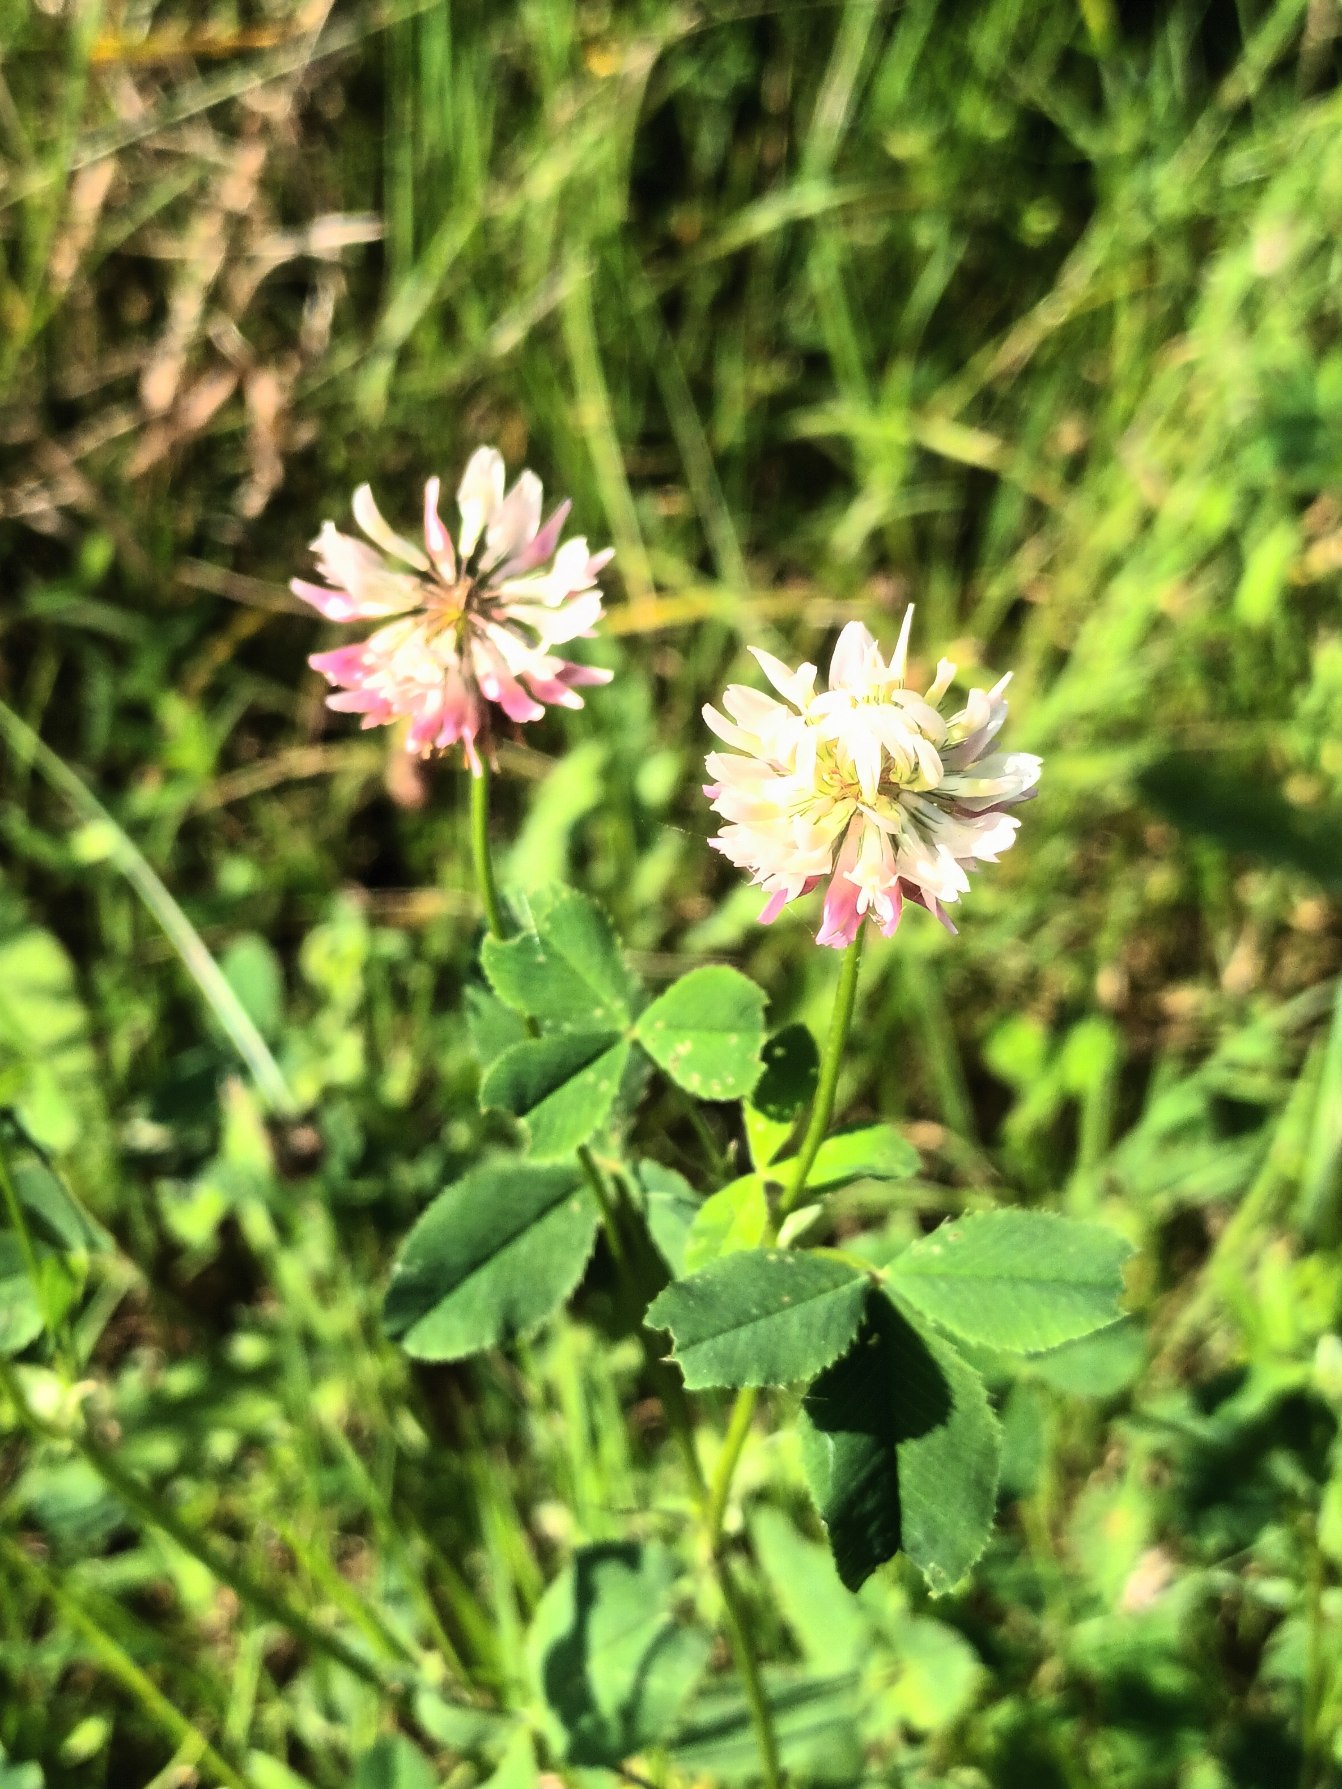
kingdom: Plantae
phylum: Tracheophyta
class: Magnoliopsida
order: Fabales
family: Fabaceae
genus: Trifolium
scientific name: Trifolium hybridum
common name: Alsike-kløver
